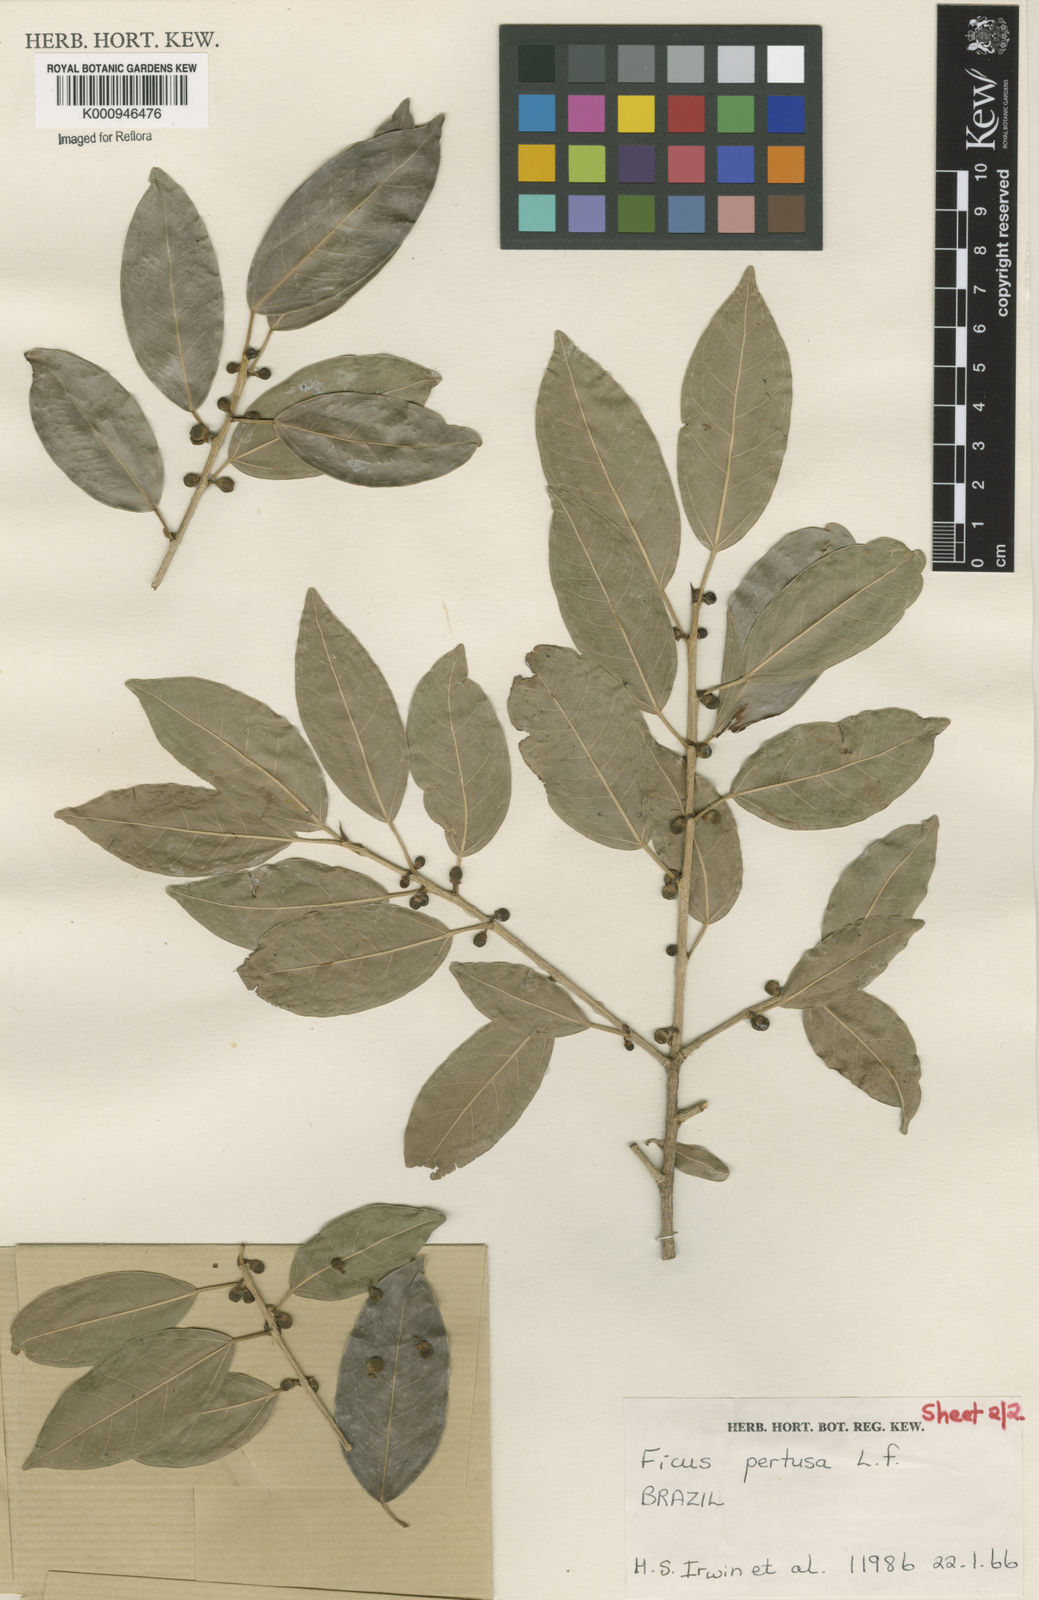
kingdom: Plantae
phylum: Tracheophyta
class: Magnoliopsida
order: Rosales
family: Moraceae
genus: Ficus
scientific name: Ficus pertusa
